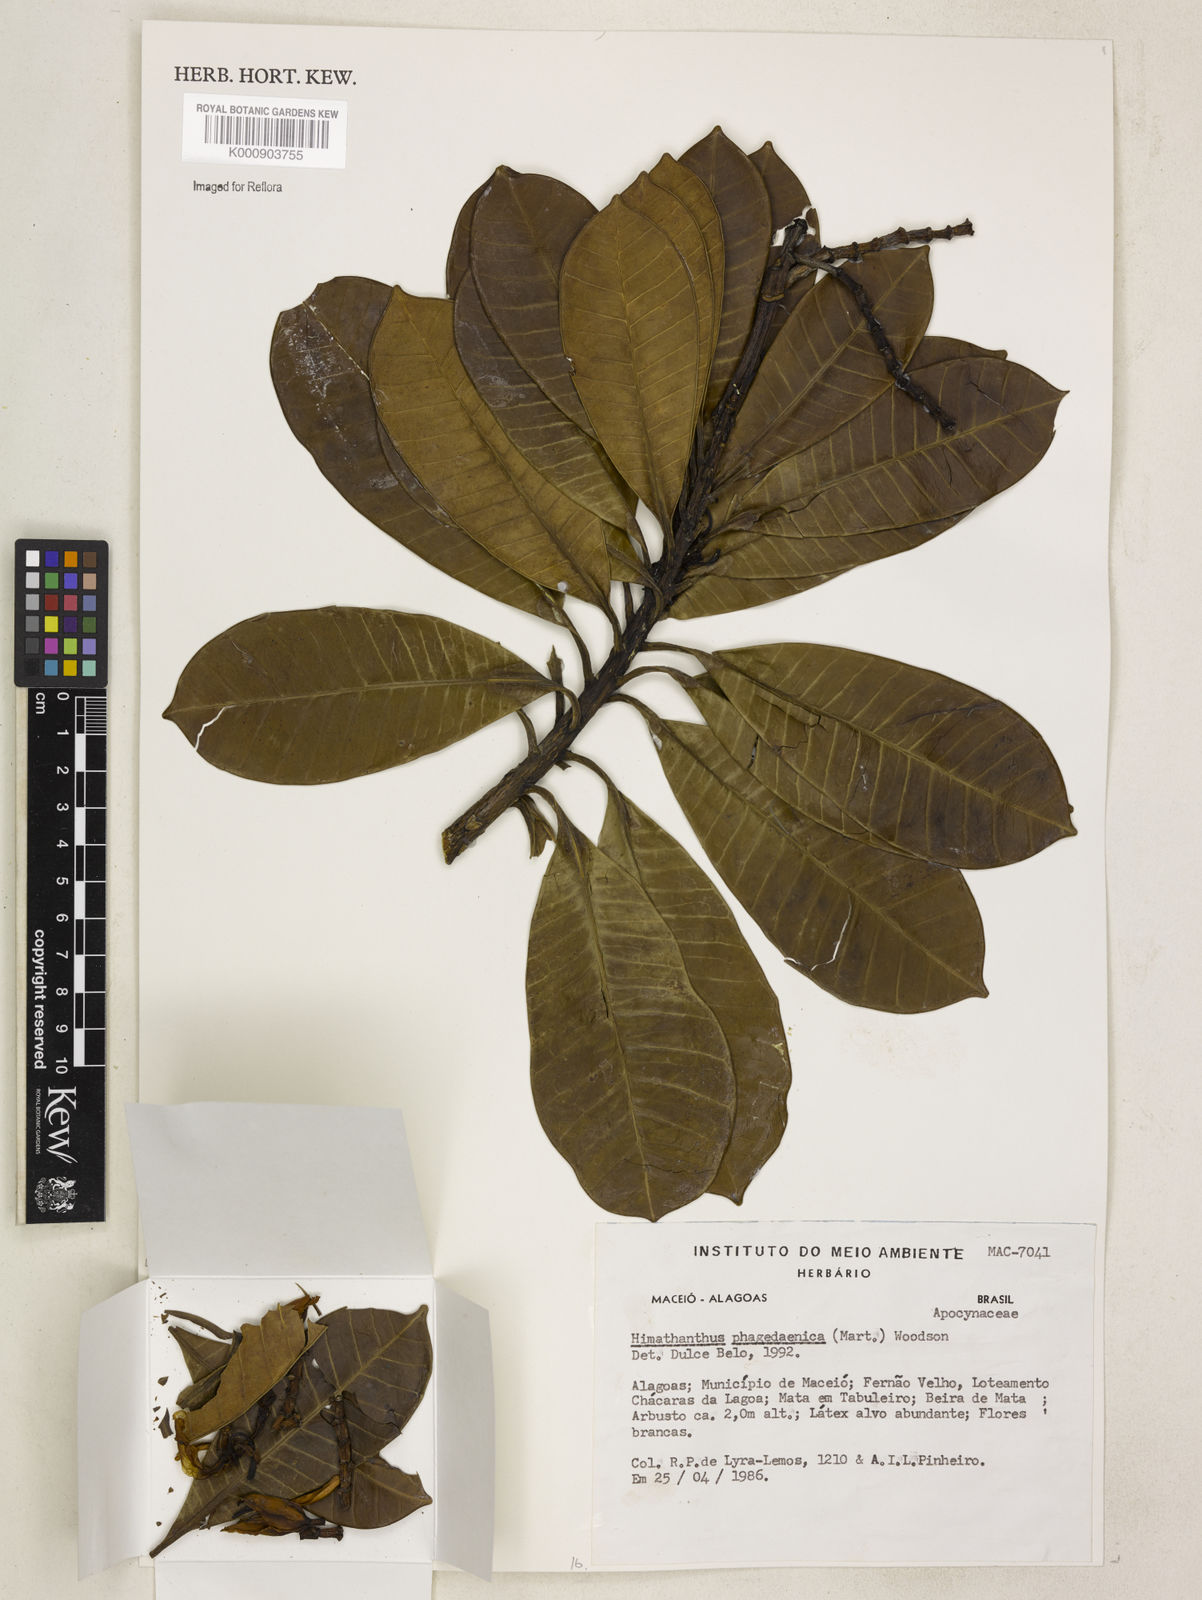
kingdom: Plantae
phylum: Tracheophyta
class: Magnoliopsida
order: Gentianales
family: Apocynaceae
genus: Himatanthus
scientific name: Himatanthus phagedaenicus
